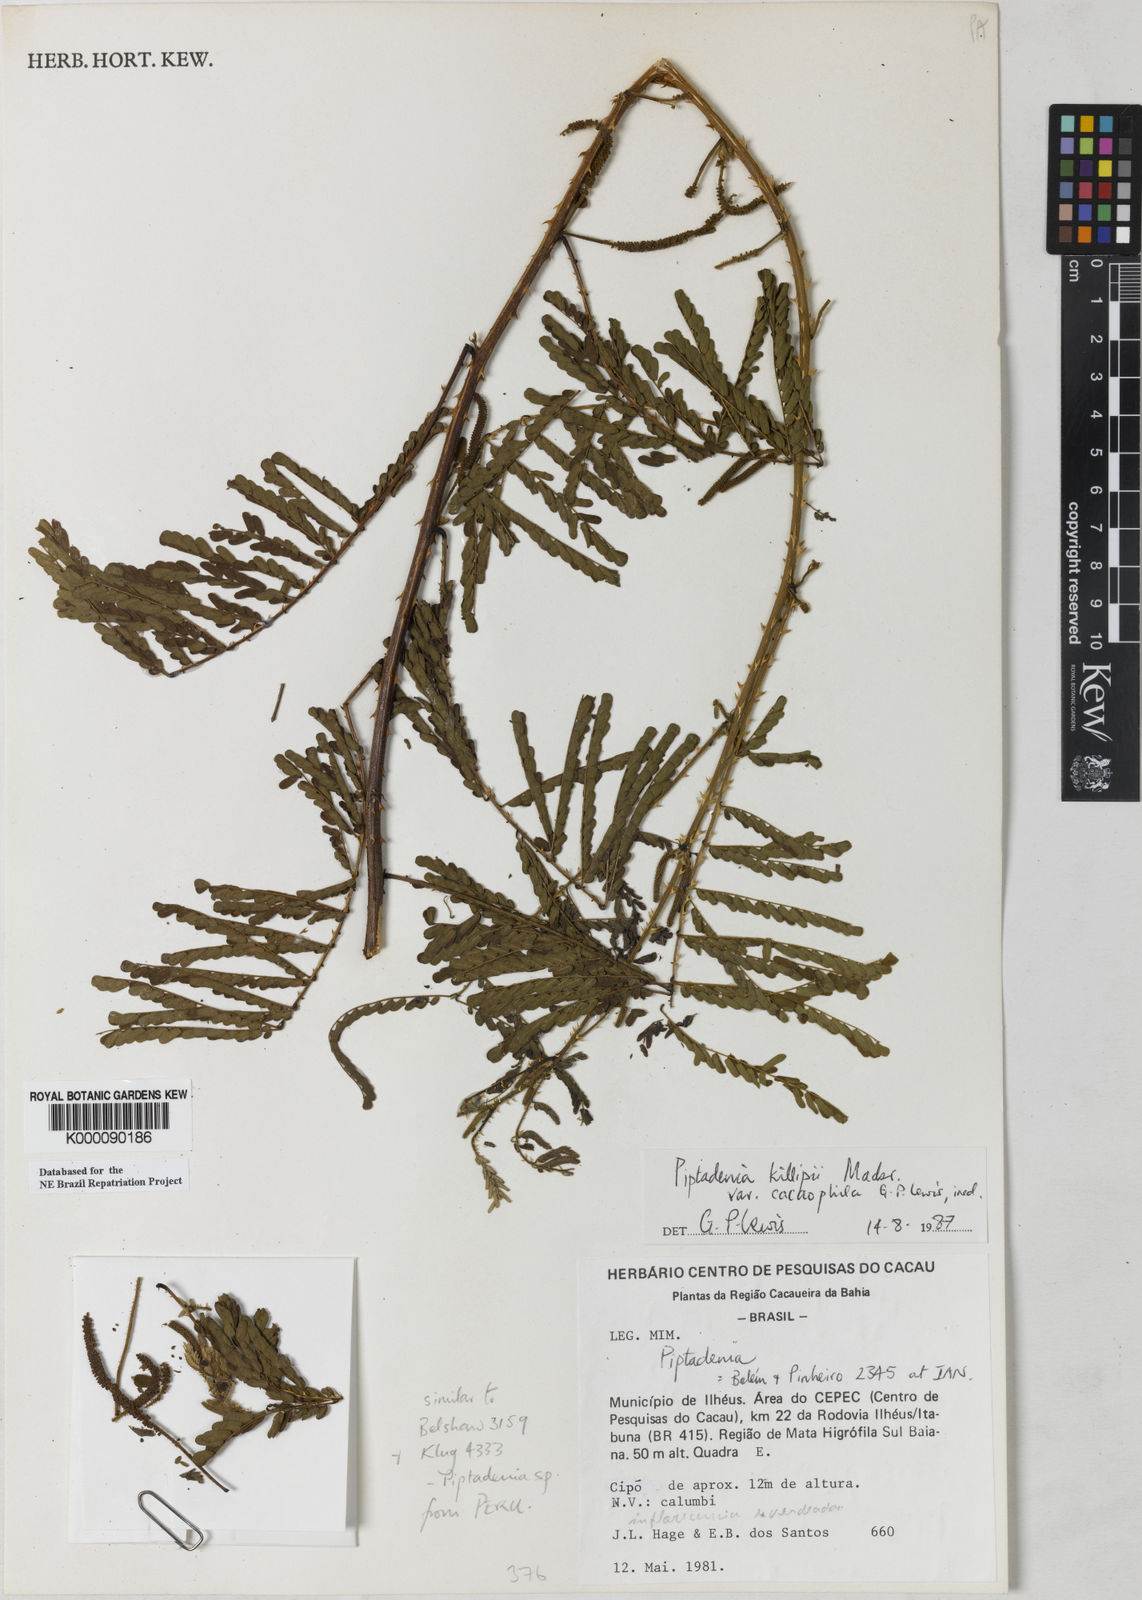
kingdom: Plantae
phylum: Tracheophyta
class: Magnoliopsida
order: Fabales
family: Fabaceae
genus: Piptadenia
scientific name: Piptadenia killipii
